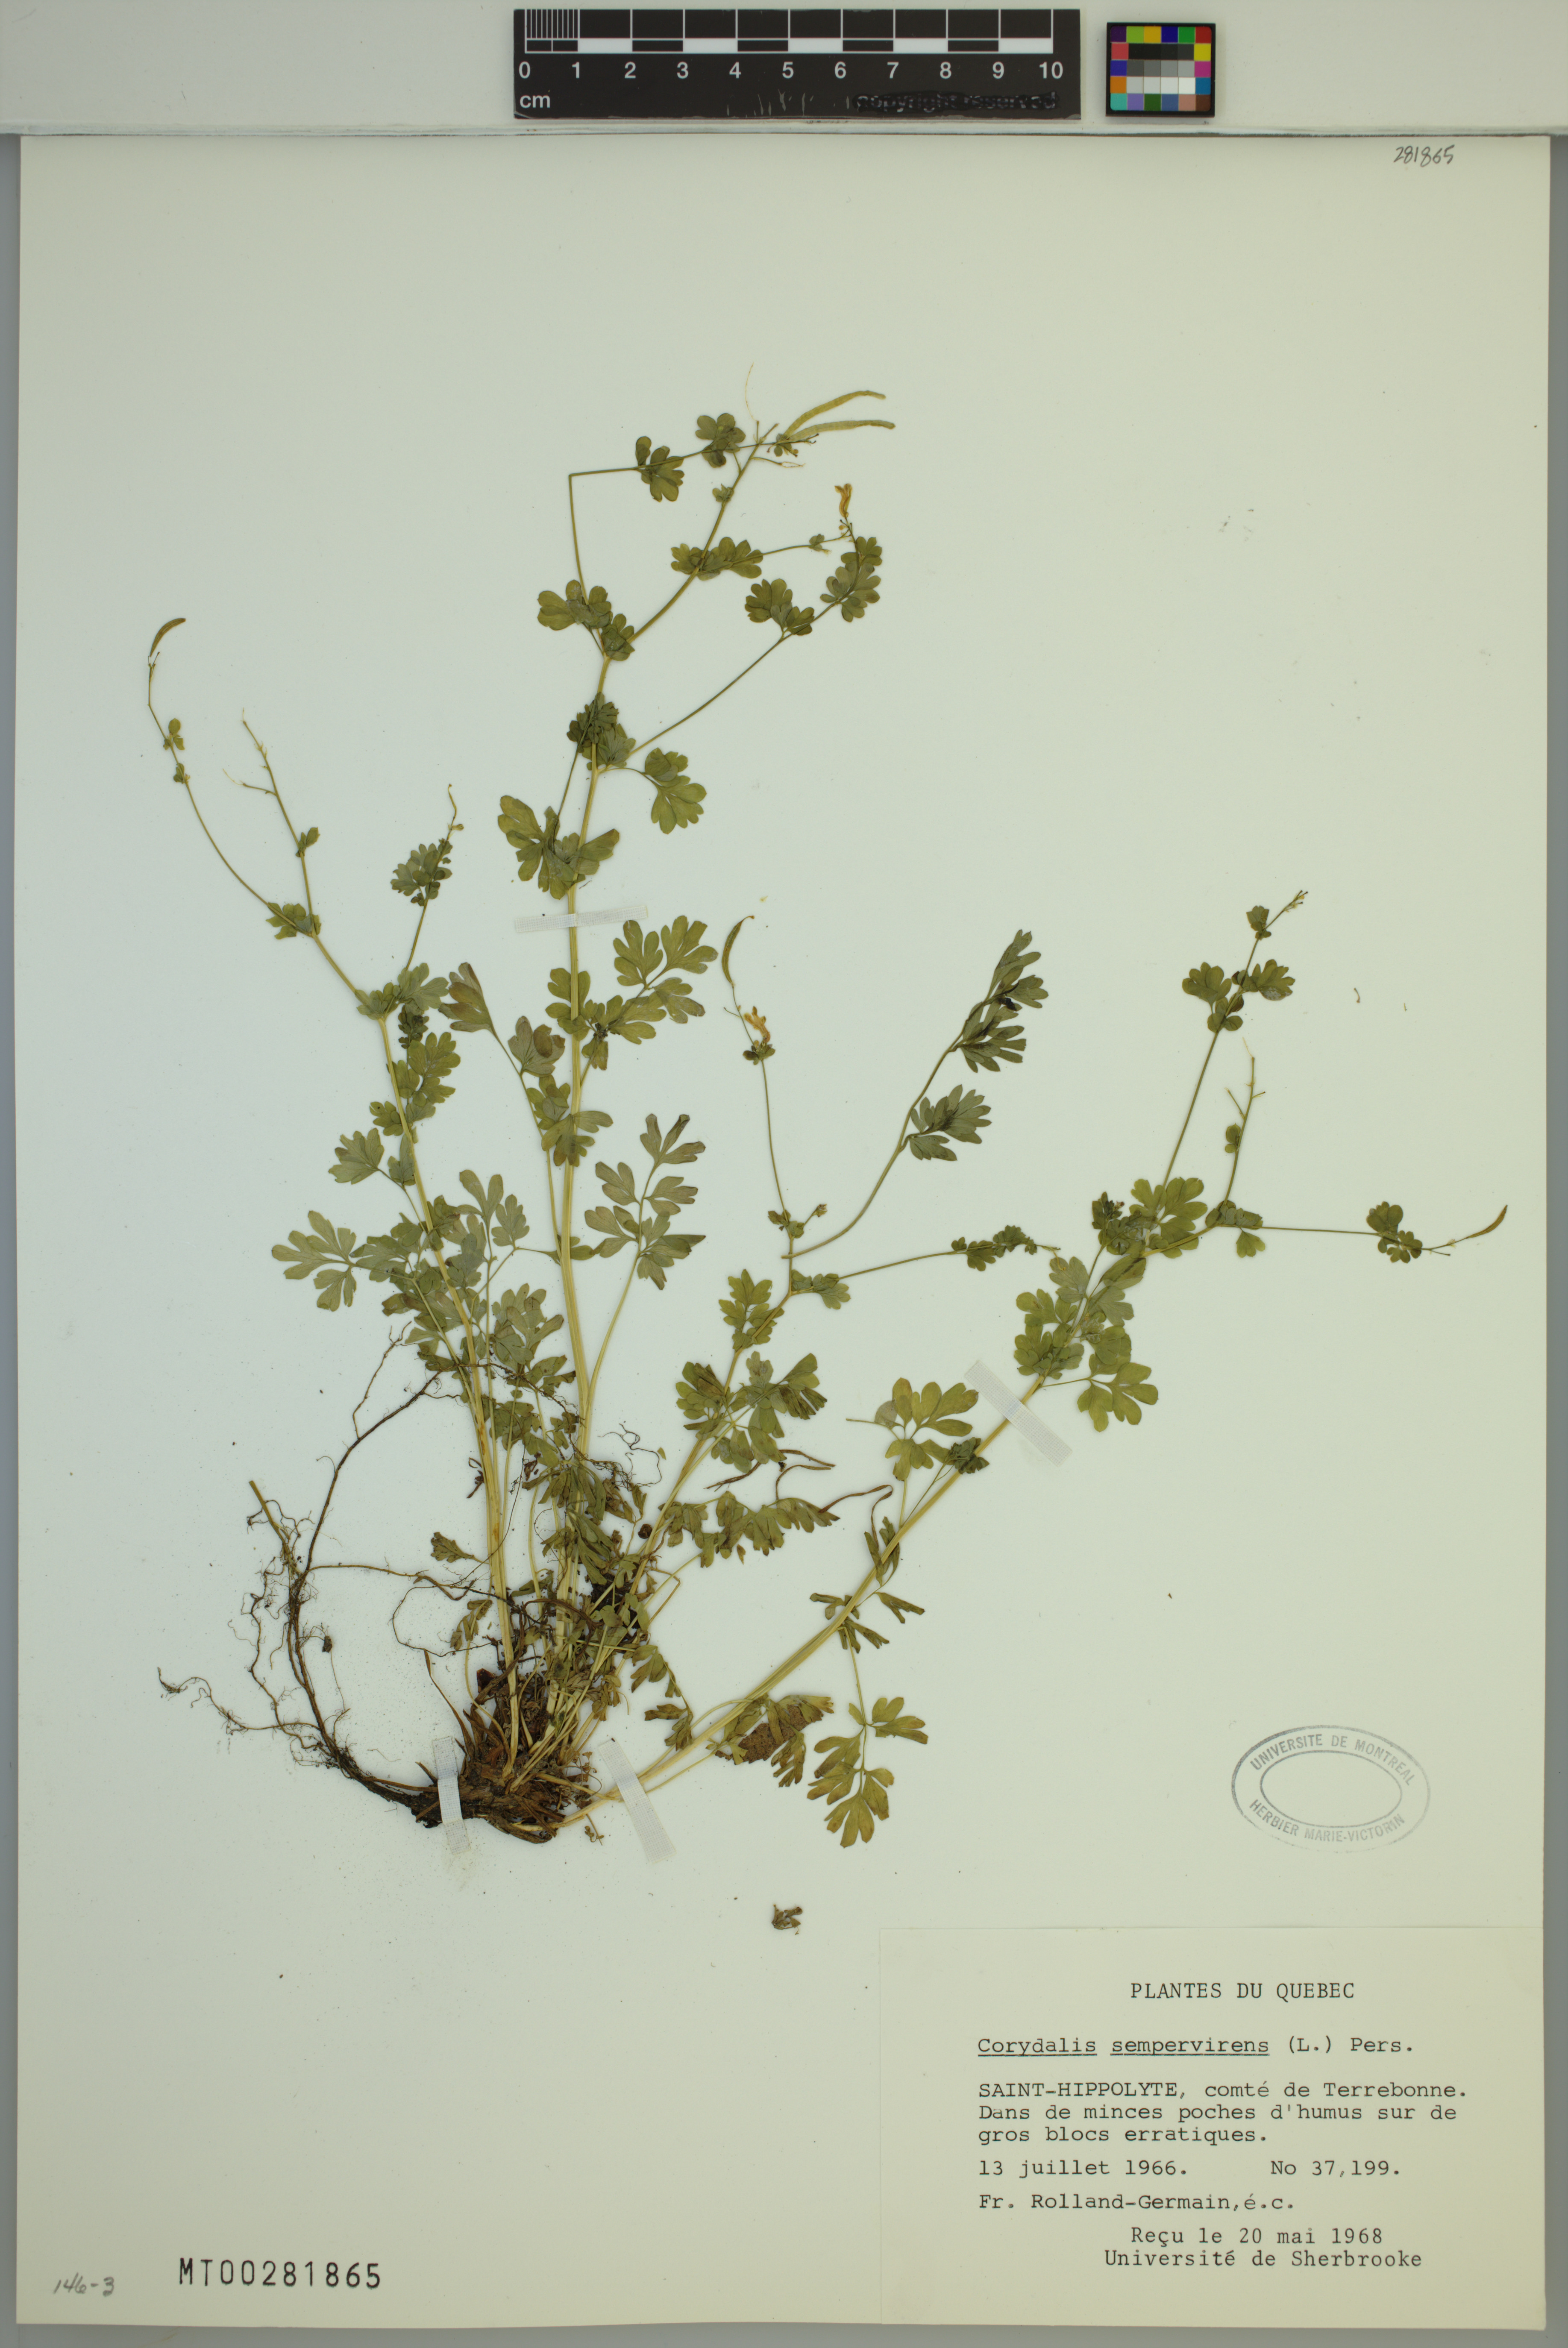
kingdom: Plantae
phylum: Tracheophyta
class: Magnoliopsida
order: Ranunculales
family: Papaveraceae
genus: Capnoides
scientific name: Capnoides sempervirens
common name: Rock harlequin
